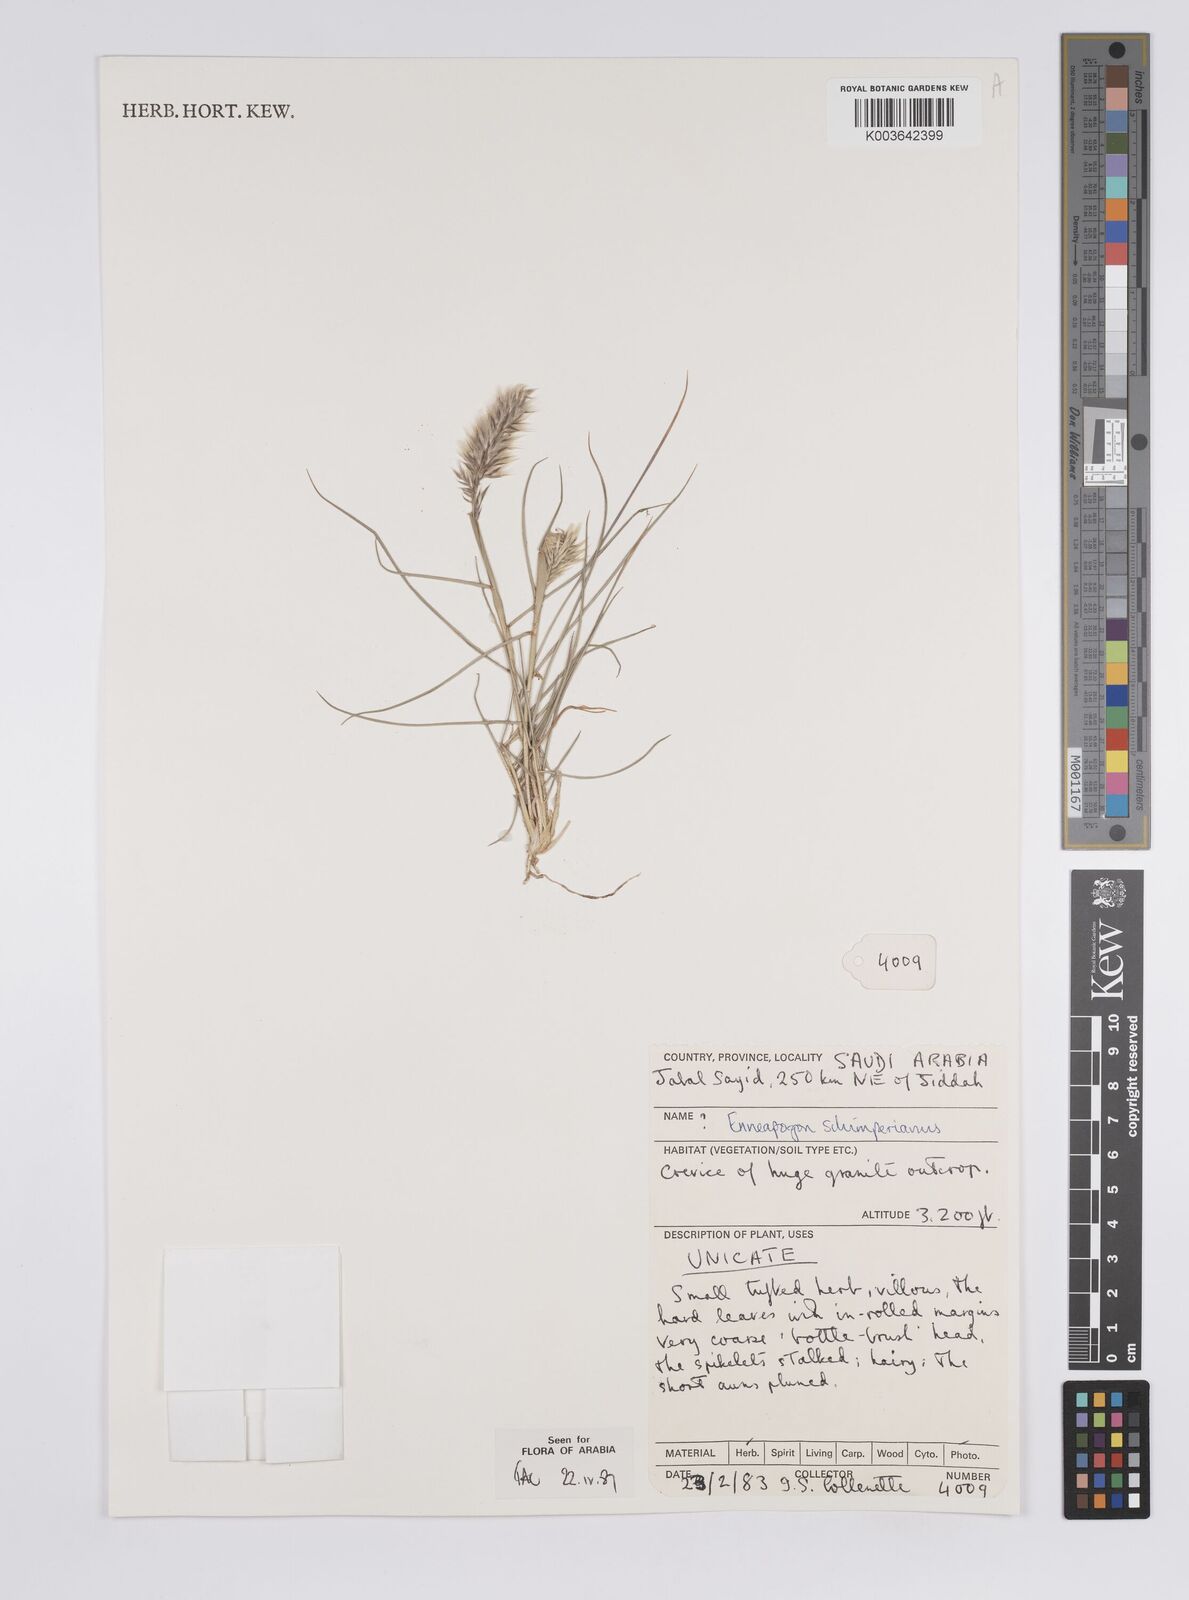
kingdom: Plantae
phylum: Tracheophyta
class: Liliopsida
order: Poales
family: Poaceae
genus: Enneapogon
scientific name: Enneapogon persicus
